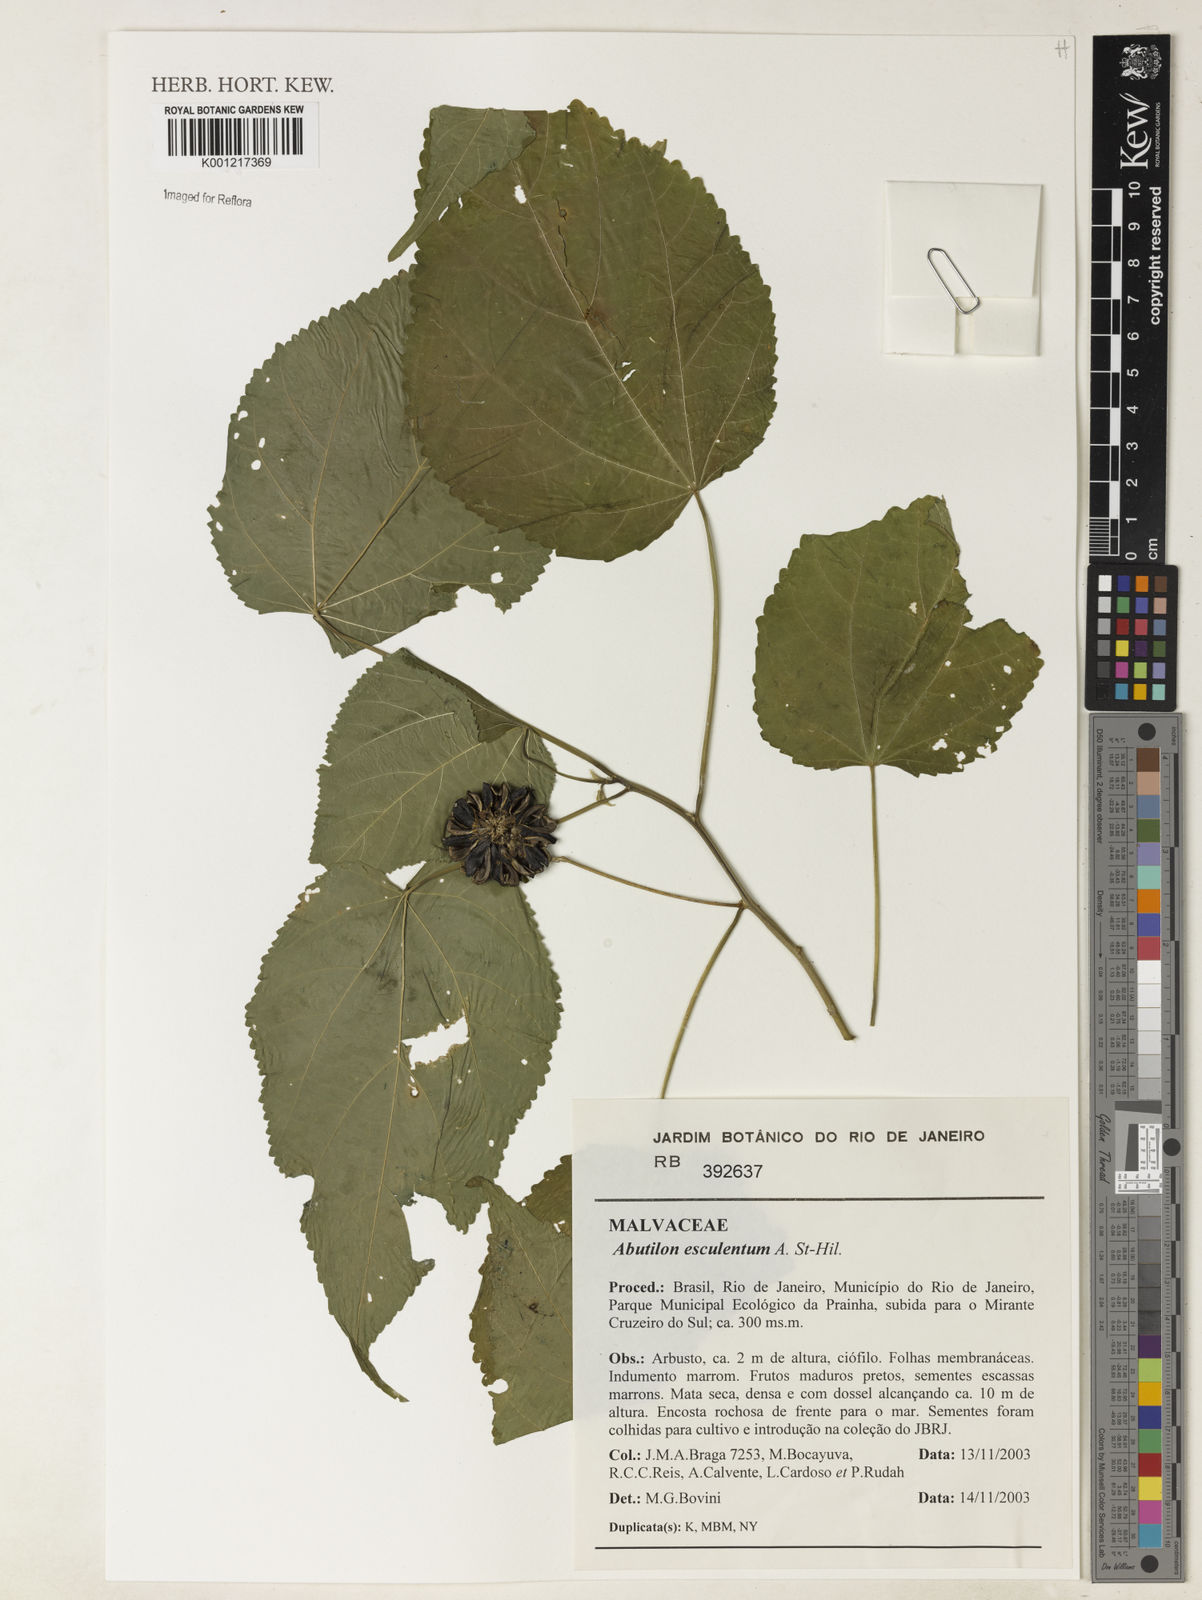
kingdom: Plantae
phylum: Tracheophyta
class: Magnoliopsida
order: Malvales
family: Malvaceae
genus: Bakeridesia
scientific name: Bakeridesia esculenta
